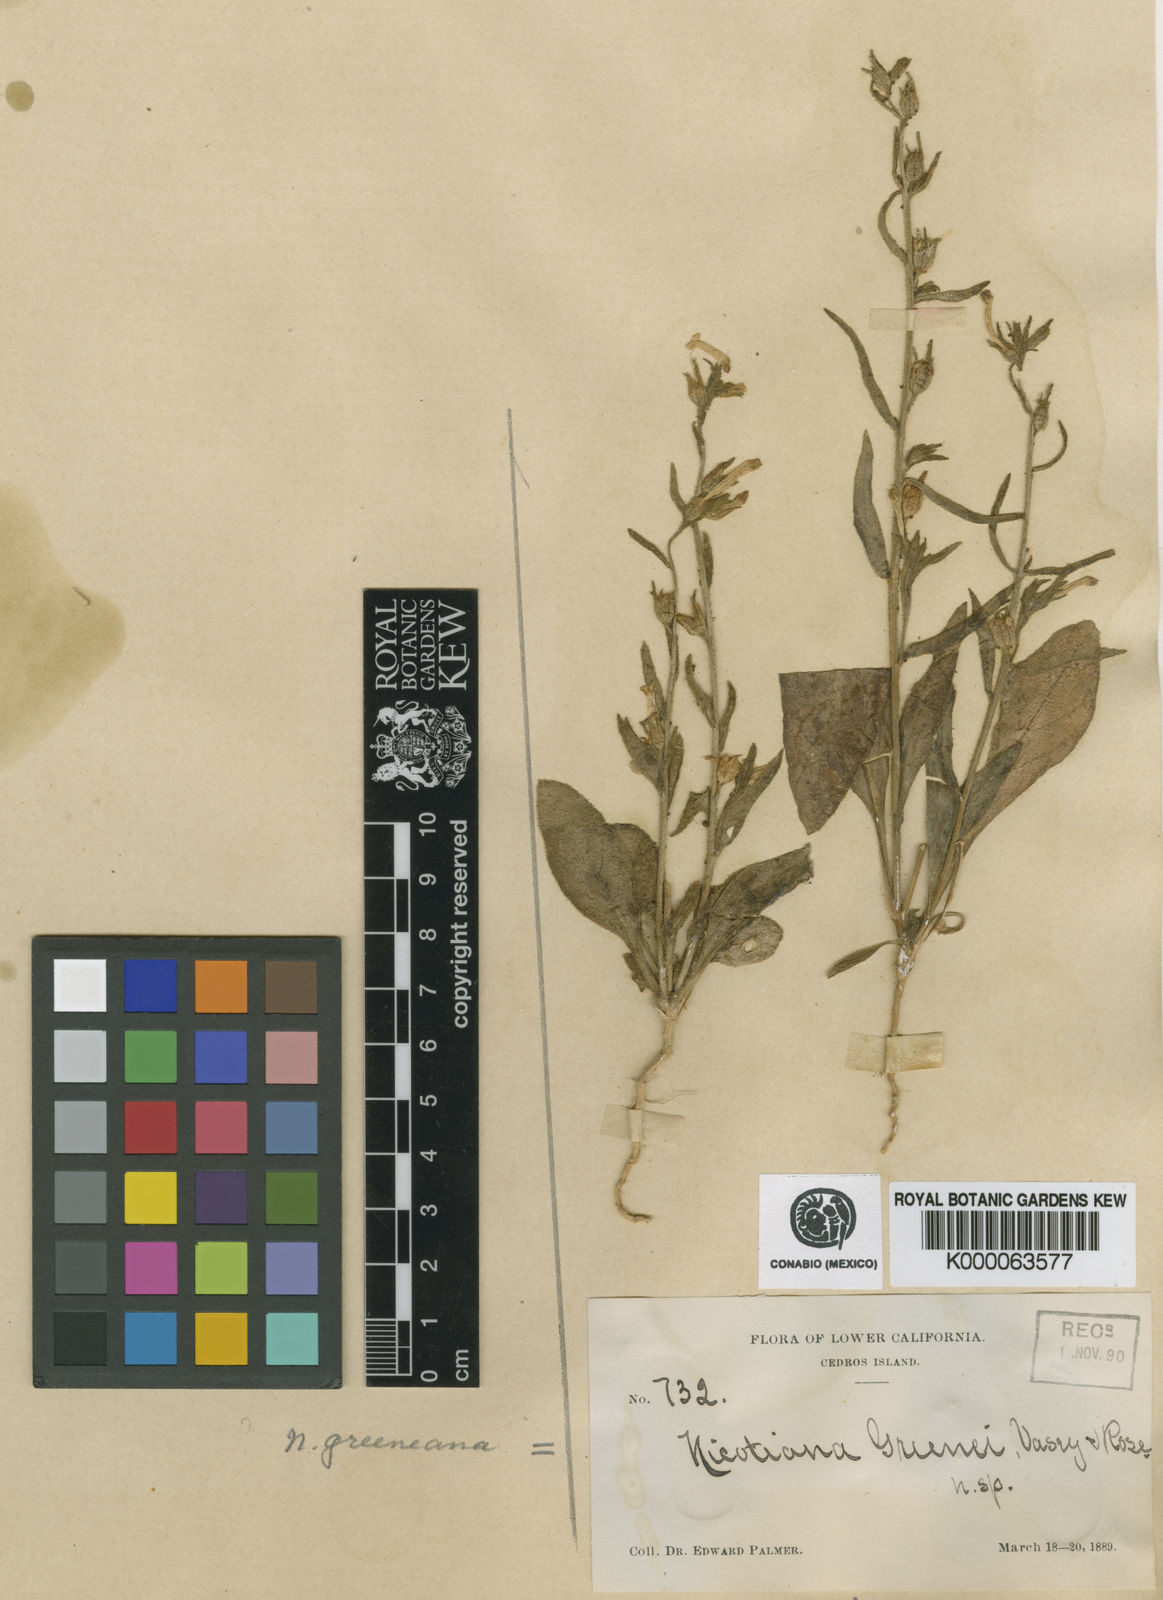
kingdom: Plantae
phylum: Tracheophyta
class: Magnoliopsida
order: Solanales
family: Solanaceae
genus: Nicotiana
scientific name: Nicotiana clevelandii
